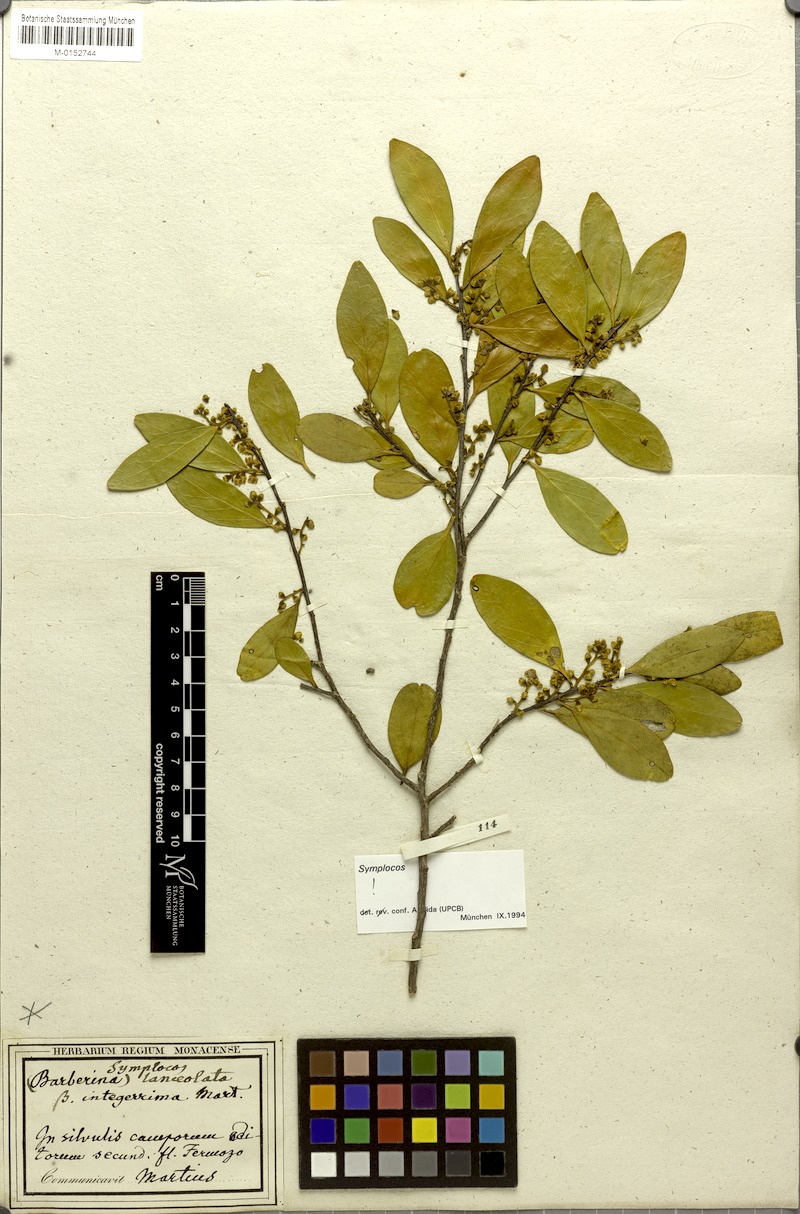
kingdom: Plantae
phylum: Tracheophyta
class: Magnoliopsida
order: Ericales
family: Symplocaceae
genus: Symplocos
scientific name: Symplocos oblongifolia
